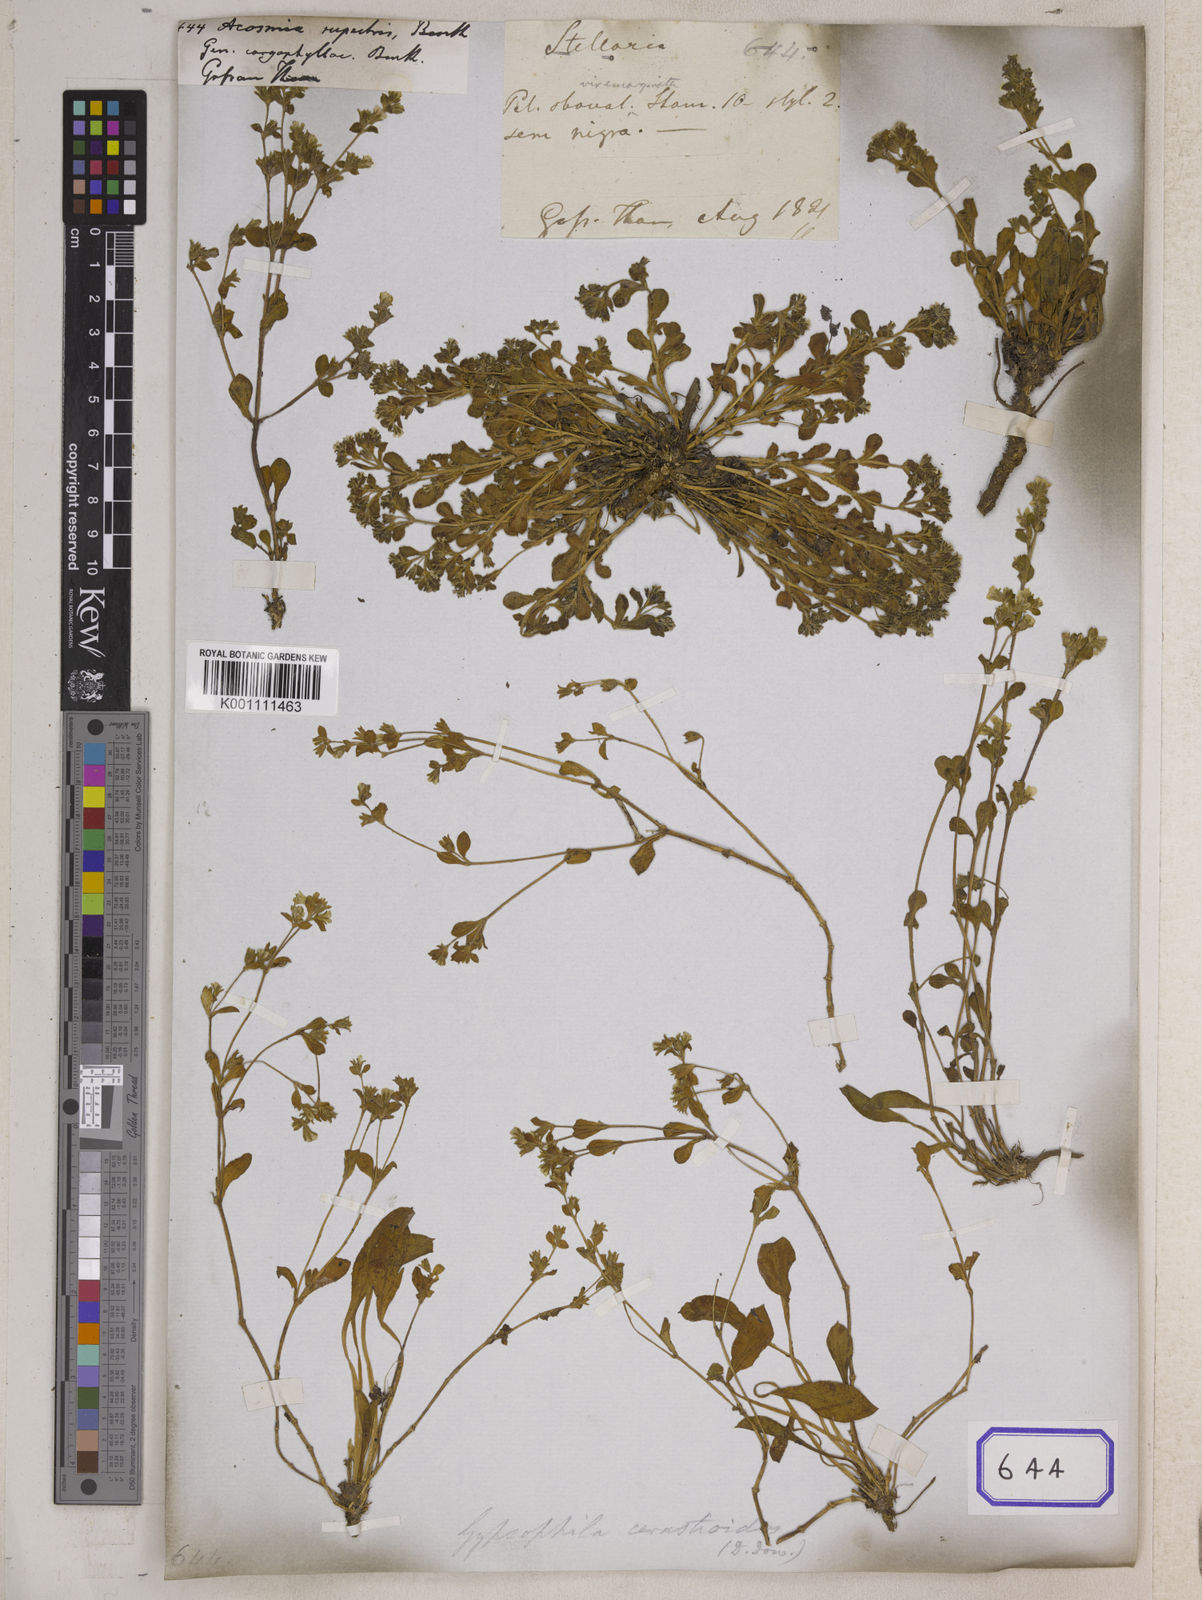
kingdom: Plantae
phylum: Tracheophyta
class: Magnoliopsida
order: Caryophyllales
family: Caryophyllaceae
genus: Acosmia
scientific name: Acosmia
